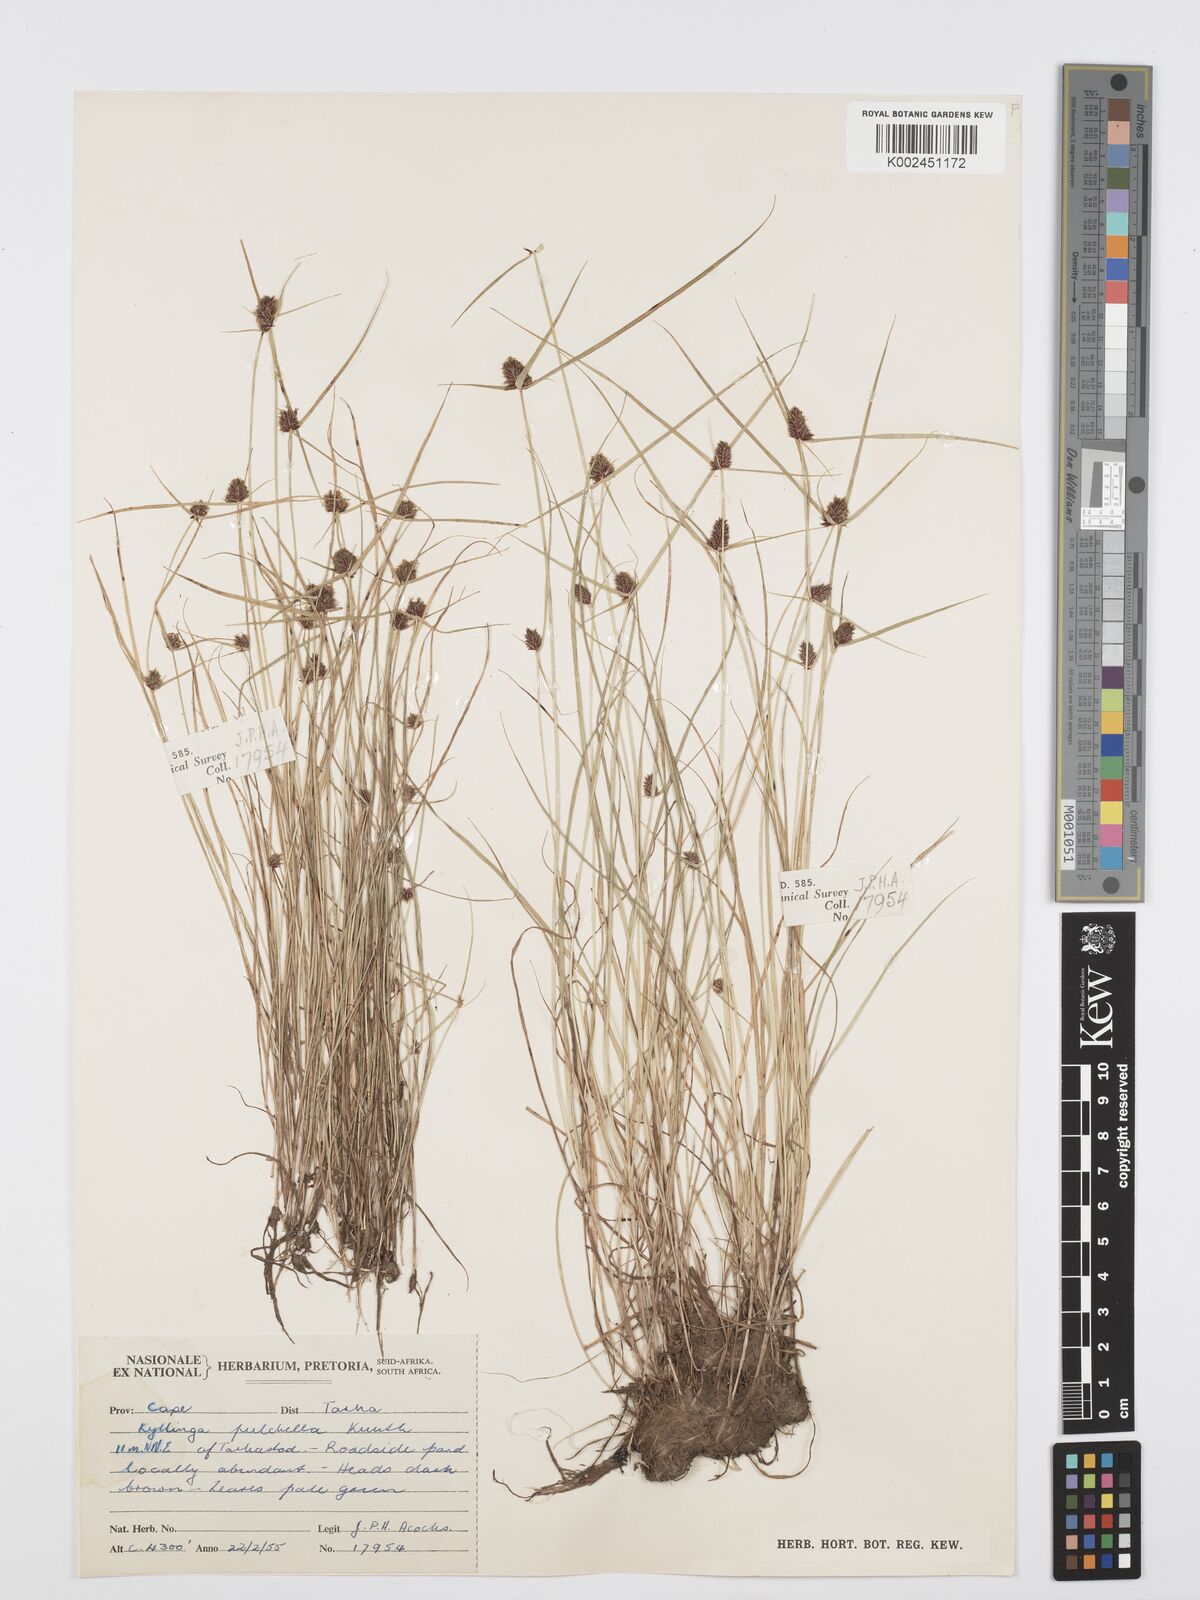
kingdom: Plantae
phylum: Tracheophyta
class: Liliopsida
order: Poales
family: Cyperaceae
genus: Cyperus
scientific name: Cyperus
